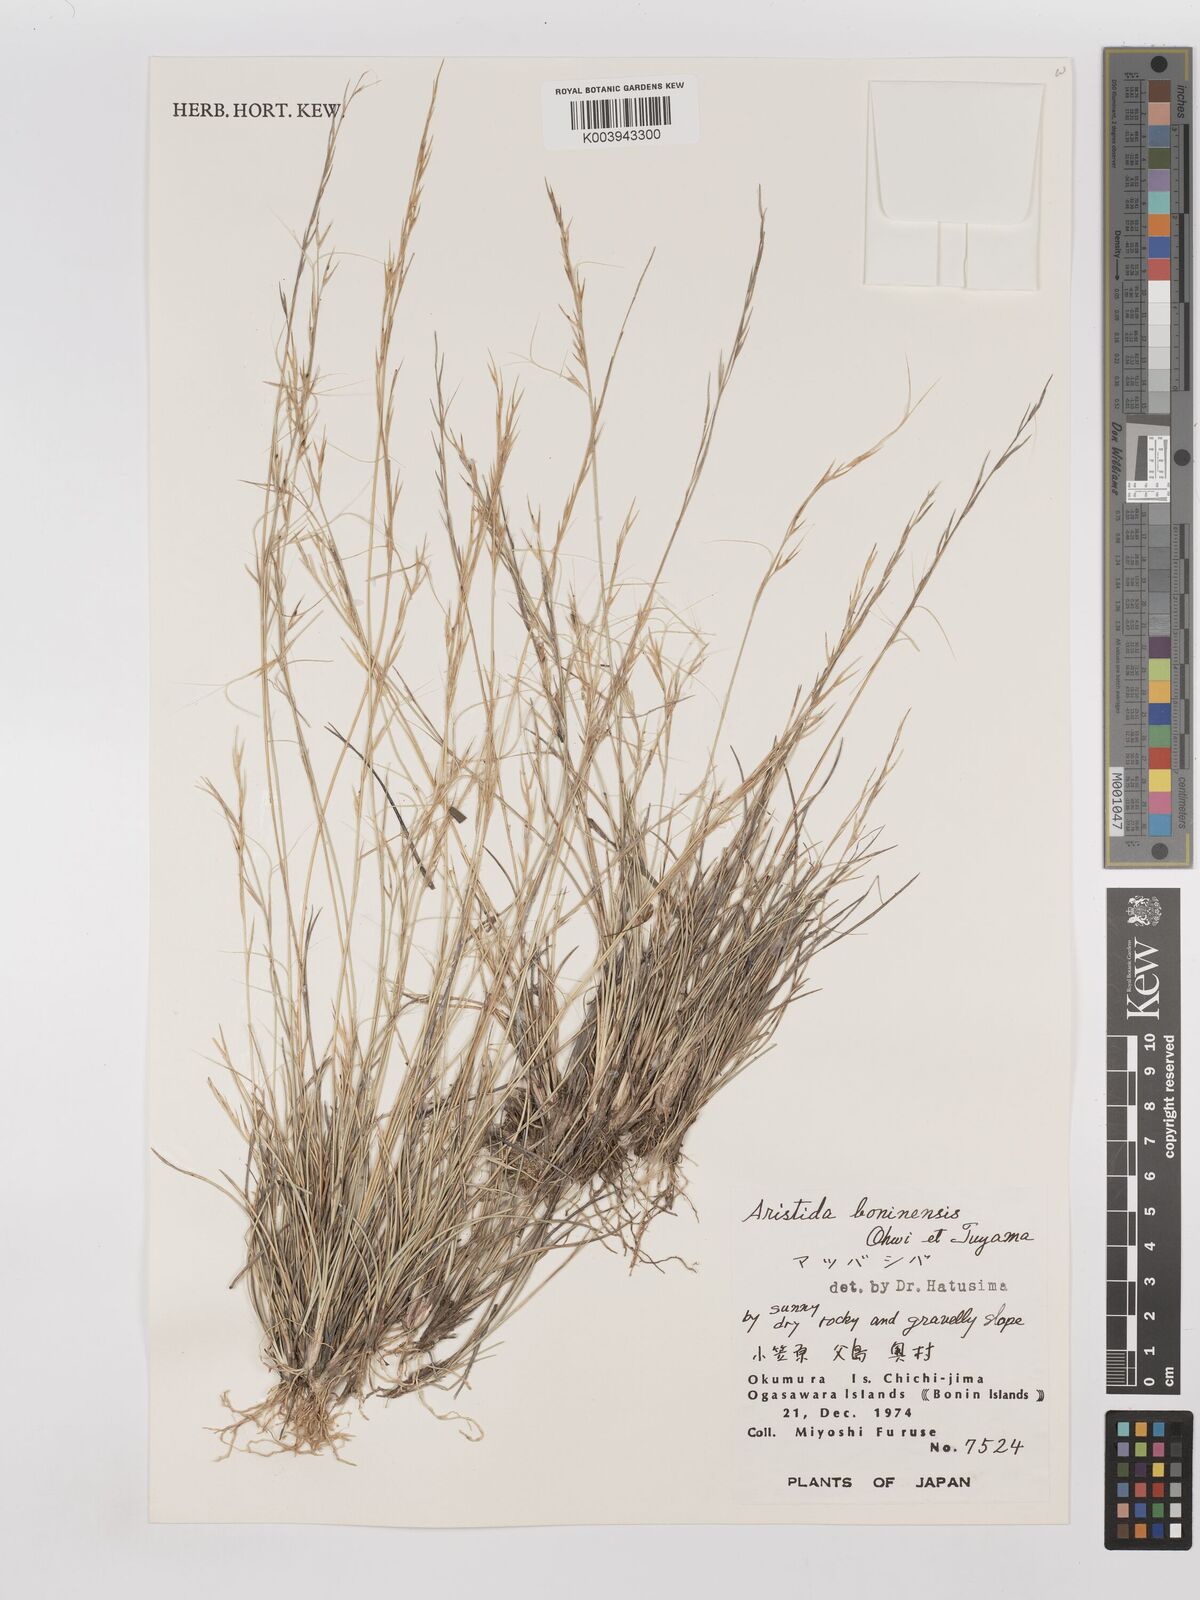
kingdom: Plantae
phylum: Tracheophyta
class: Liliopsida
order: Poales
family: Poaceae
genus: Aristida
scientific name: Aristida boninensis
